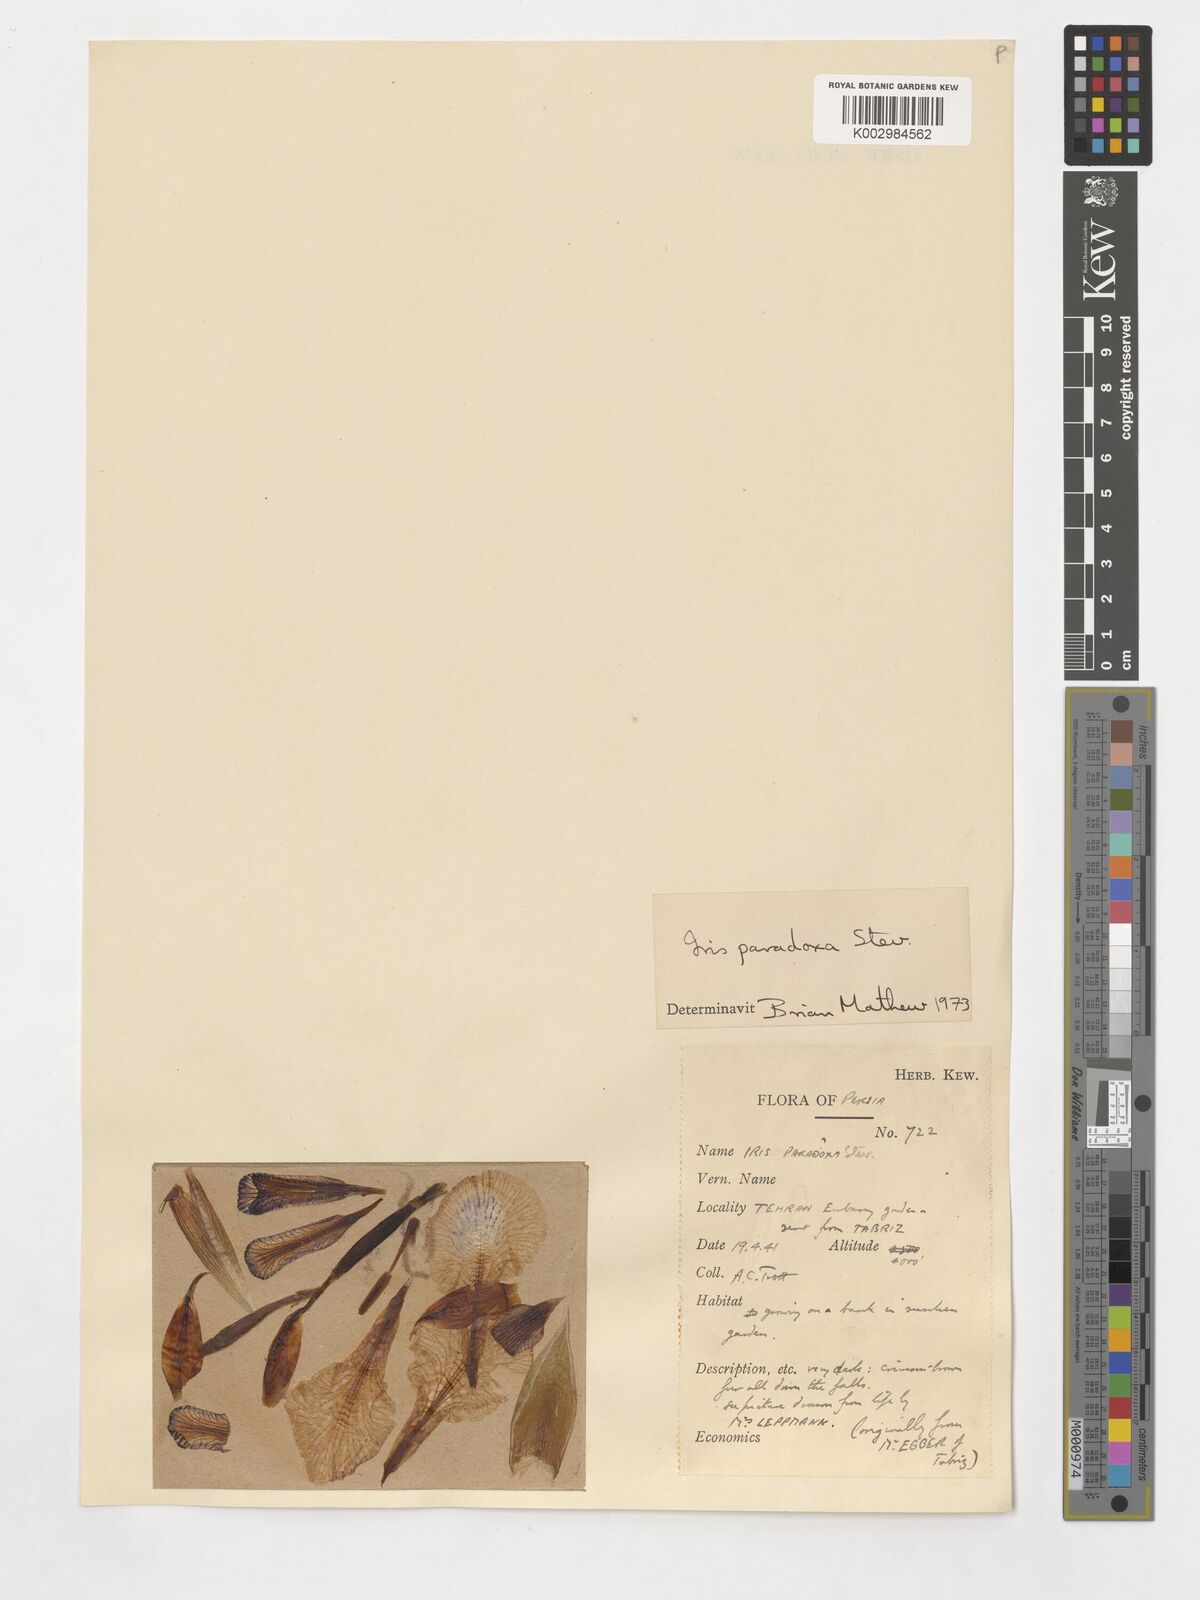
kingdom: Plantae
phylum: Tracheophyta
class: Liliopsida
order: Asparagales
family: Iridaceae
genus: Iris
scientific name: Iris paradoxa
